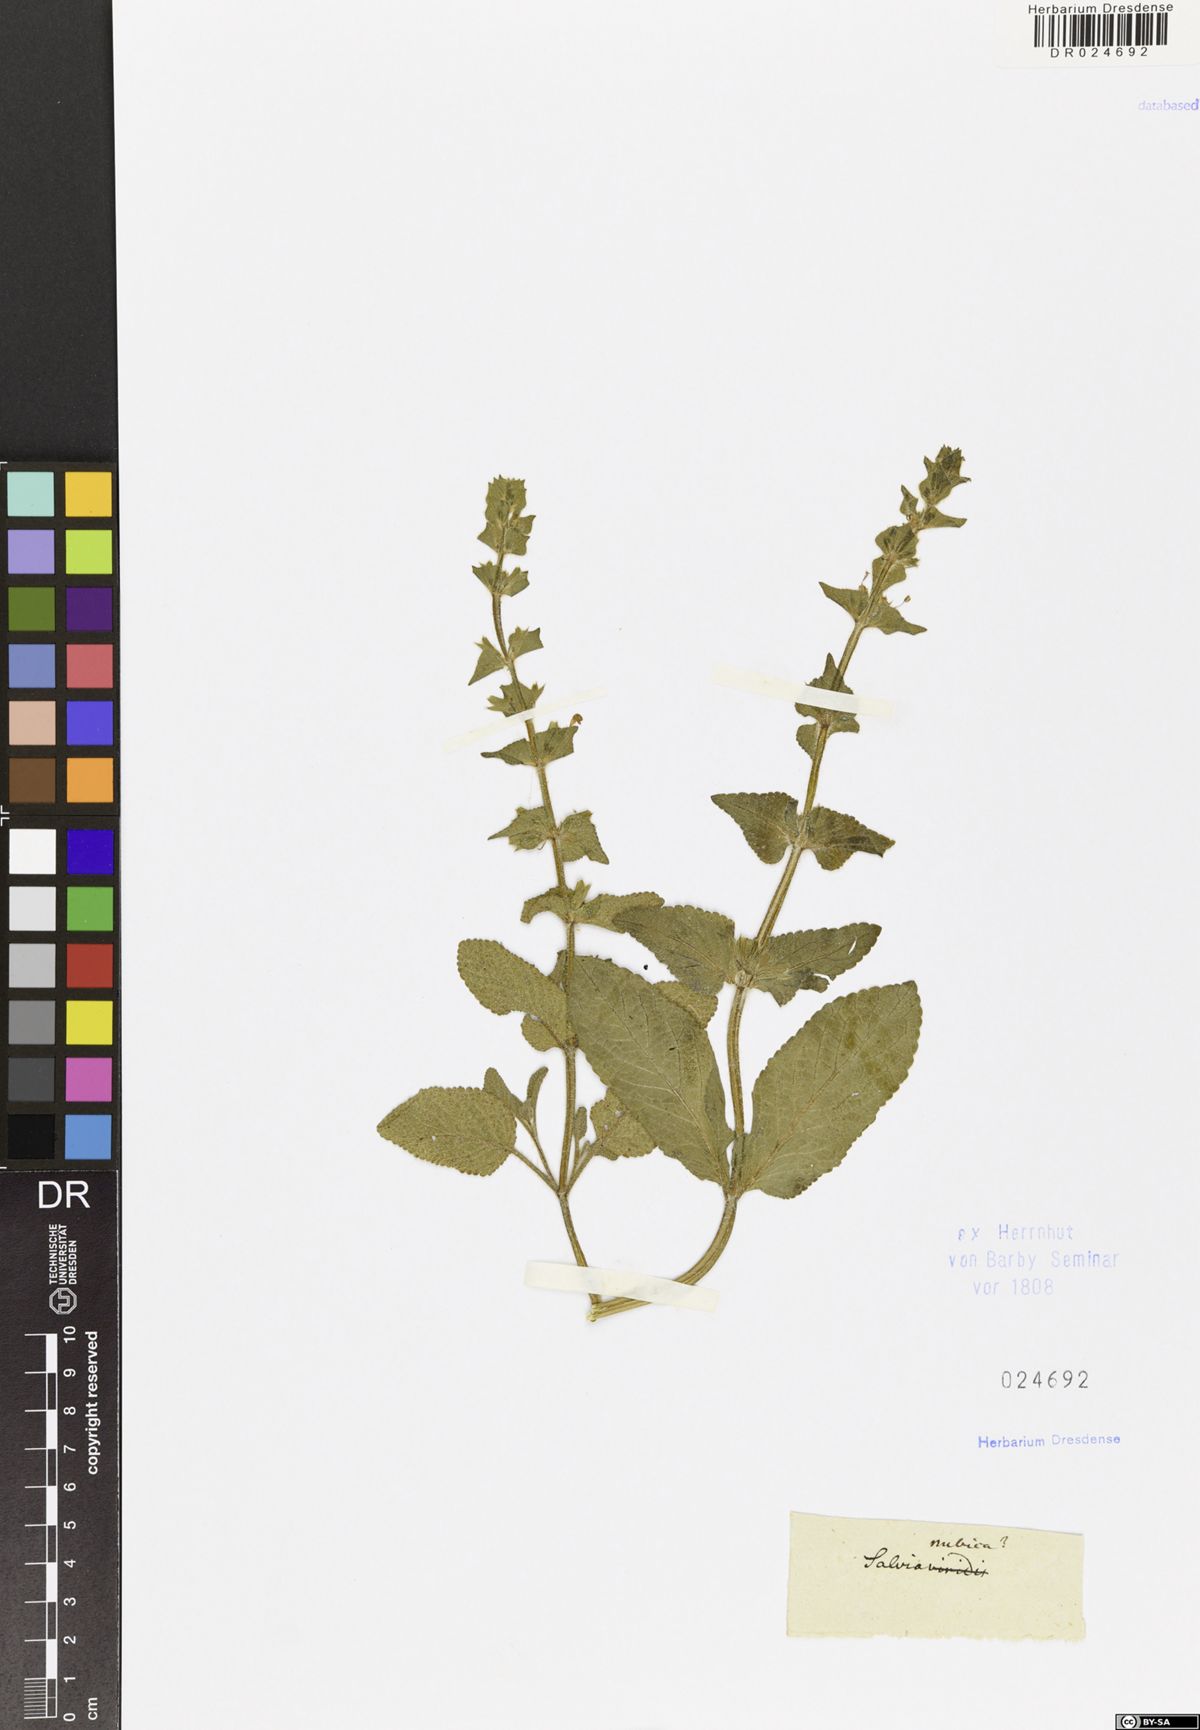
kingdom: Plantae
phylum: Tracheophyta
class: Magnoliopsida
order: Lamiales
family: Lamiaceae
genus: Salvia
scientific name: Salvia viridis
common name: Annual clary
